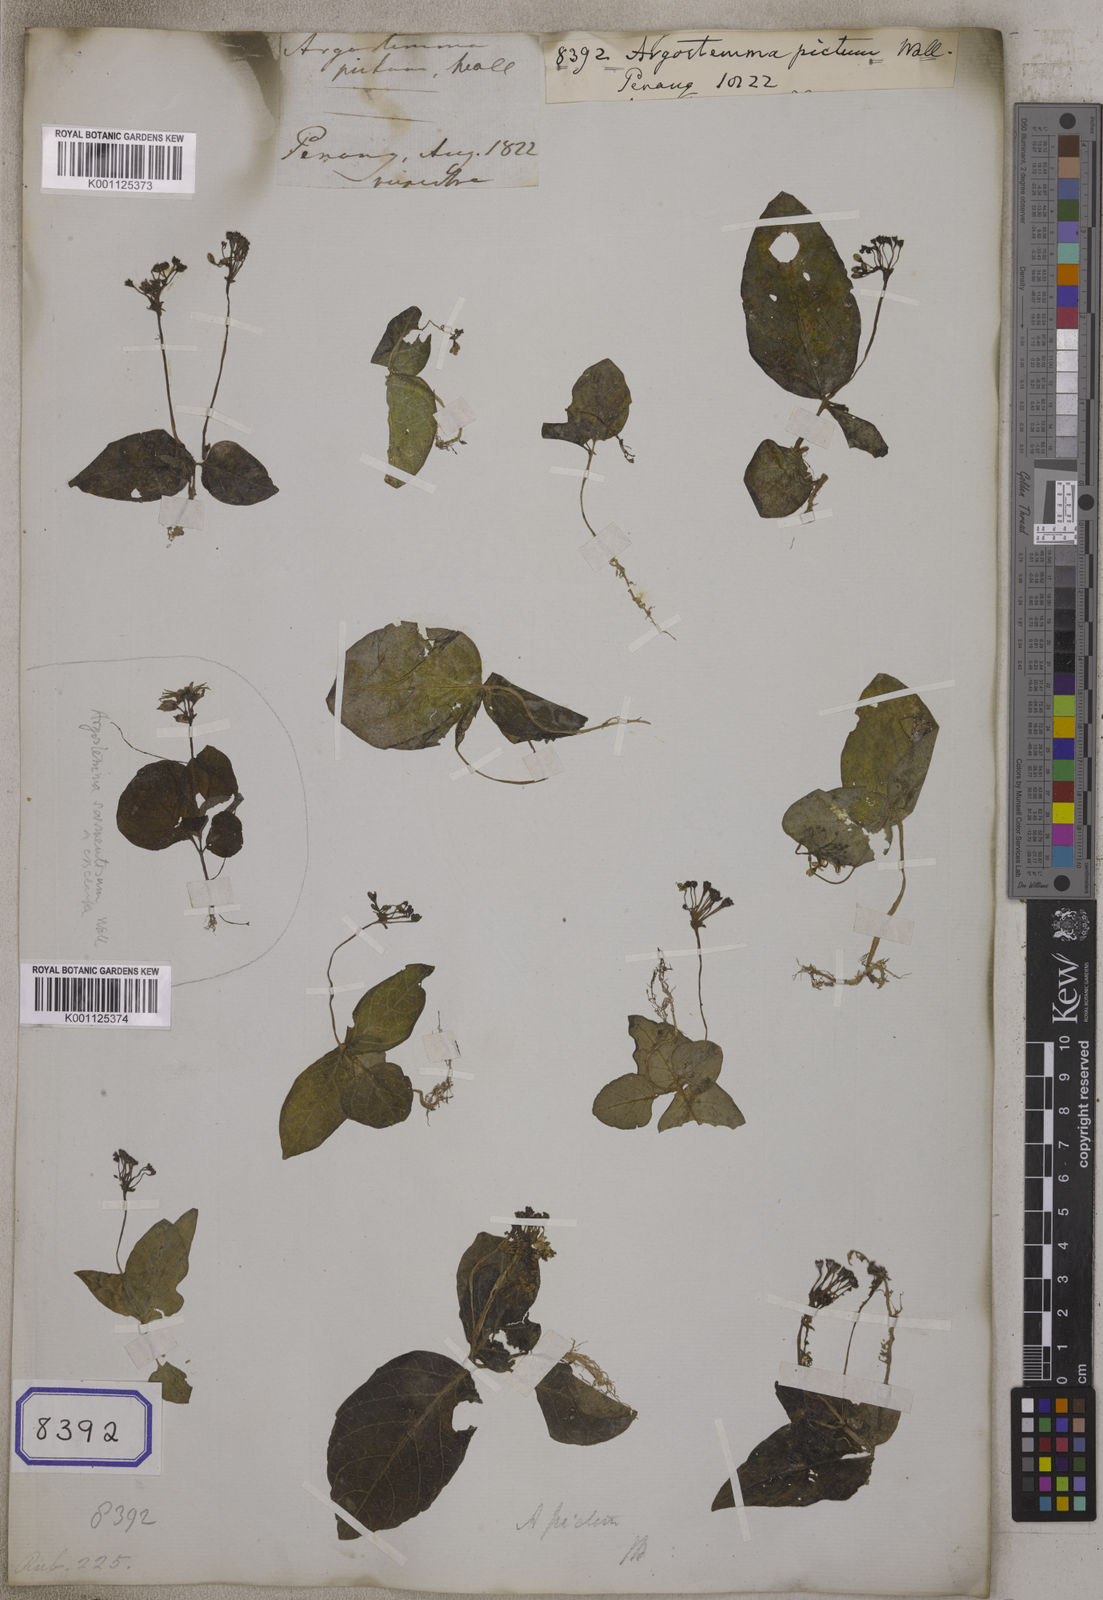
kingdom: Plantae
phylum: Tracheophyta
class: Magnoliopsida
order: Gentianales
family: Rubiaceae
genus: Argostemma
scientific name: Argostemma pictum
